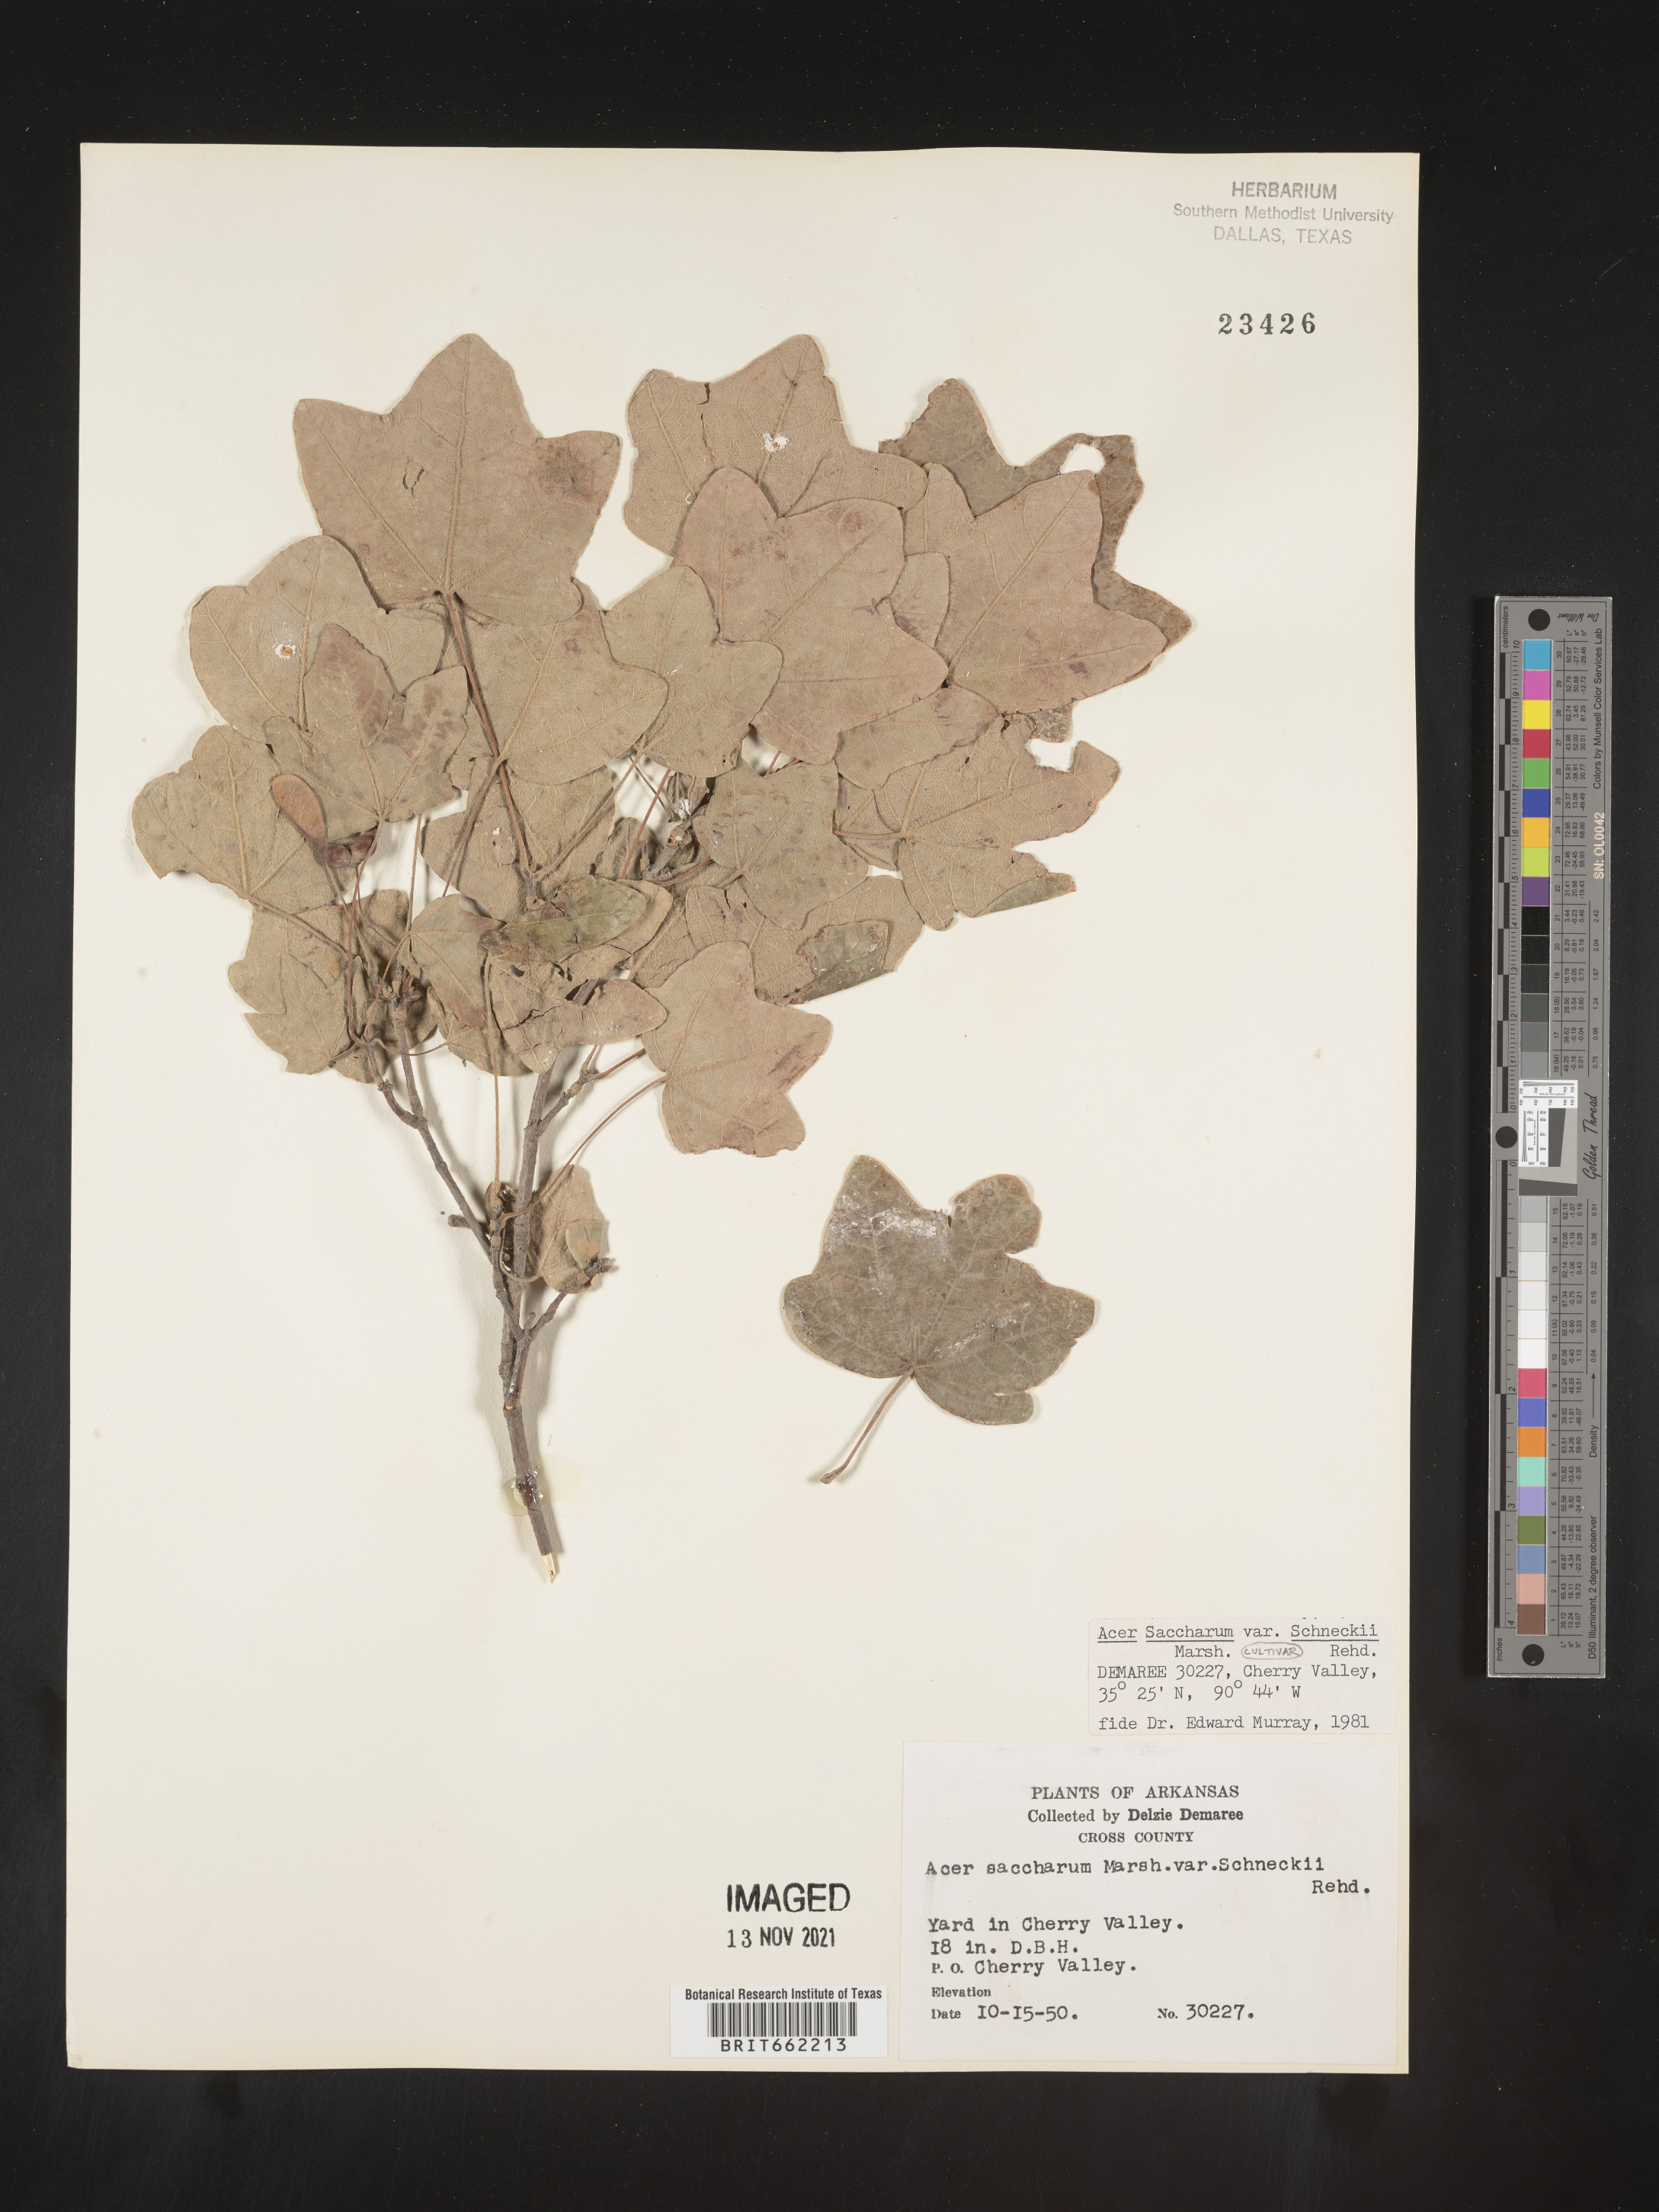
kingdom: Plantae
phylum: Tracheophyta
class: Magnoliopsida
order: Sapindales
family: Sapindaceae
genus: Acer
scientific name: Acer saccharum
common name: Sugar maple
